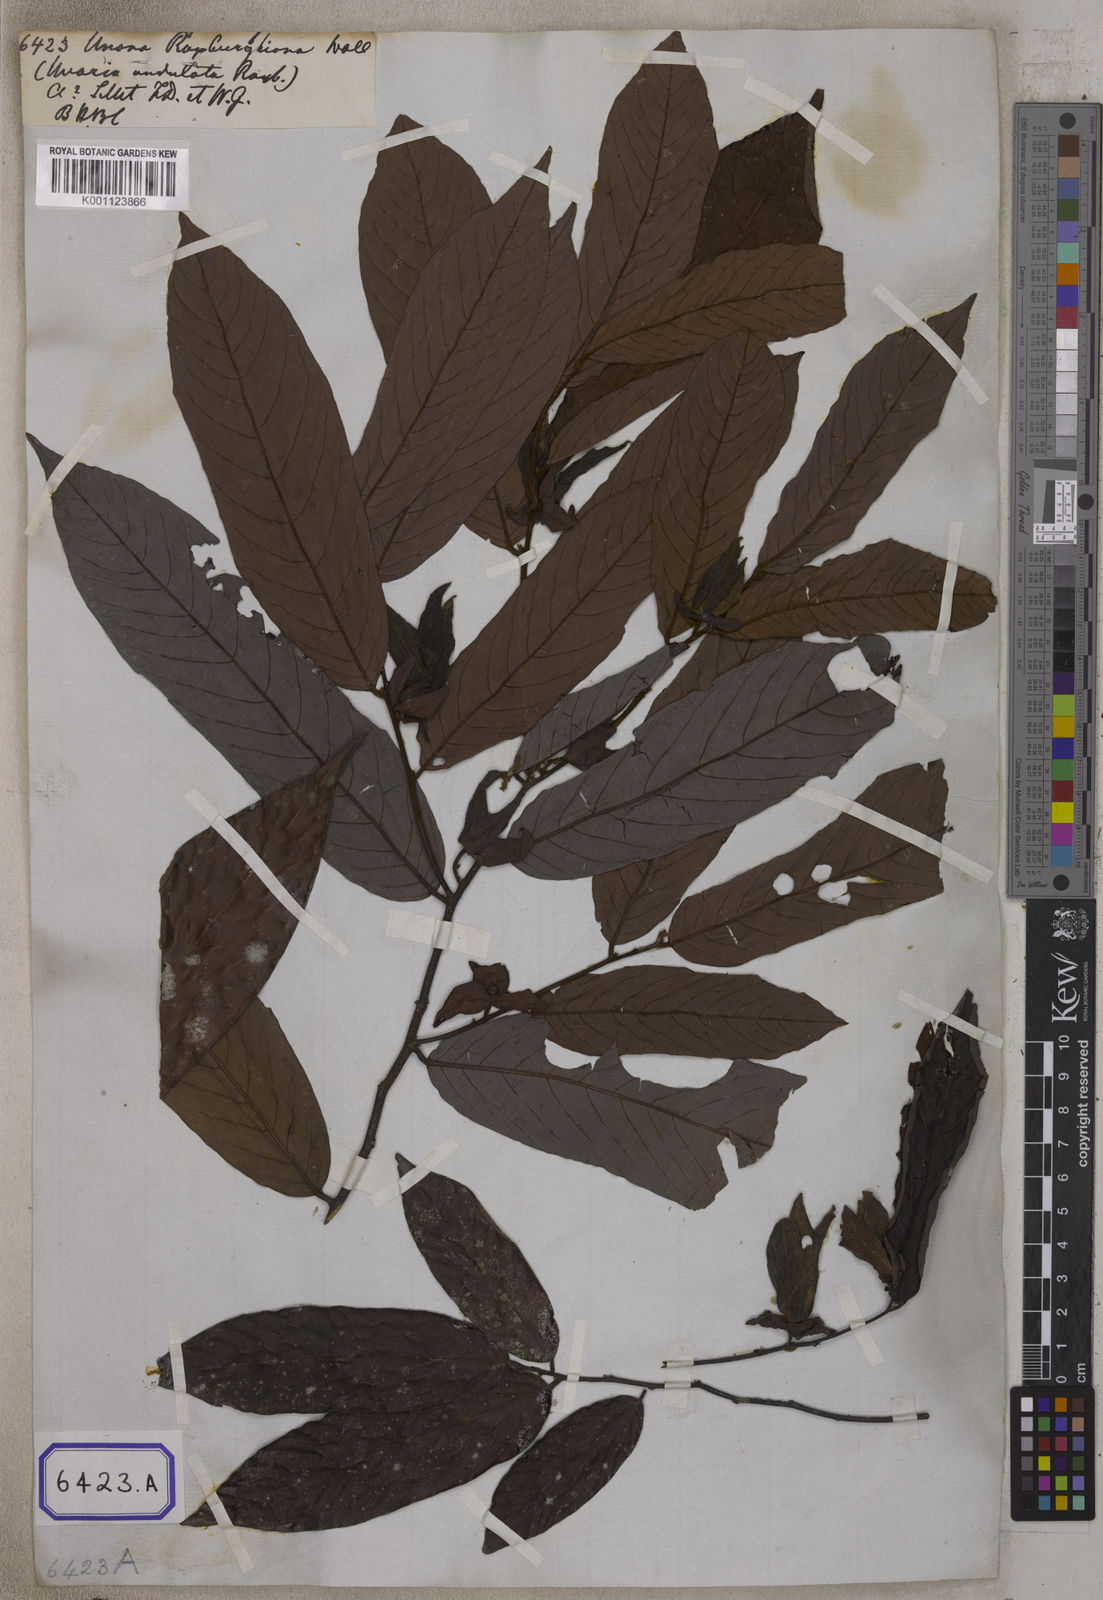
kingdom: Plantae
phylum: Tracheophyta
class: Magnoliopsida
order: Magnoliales
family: Annonaceae
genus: Unona
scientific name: Unona
